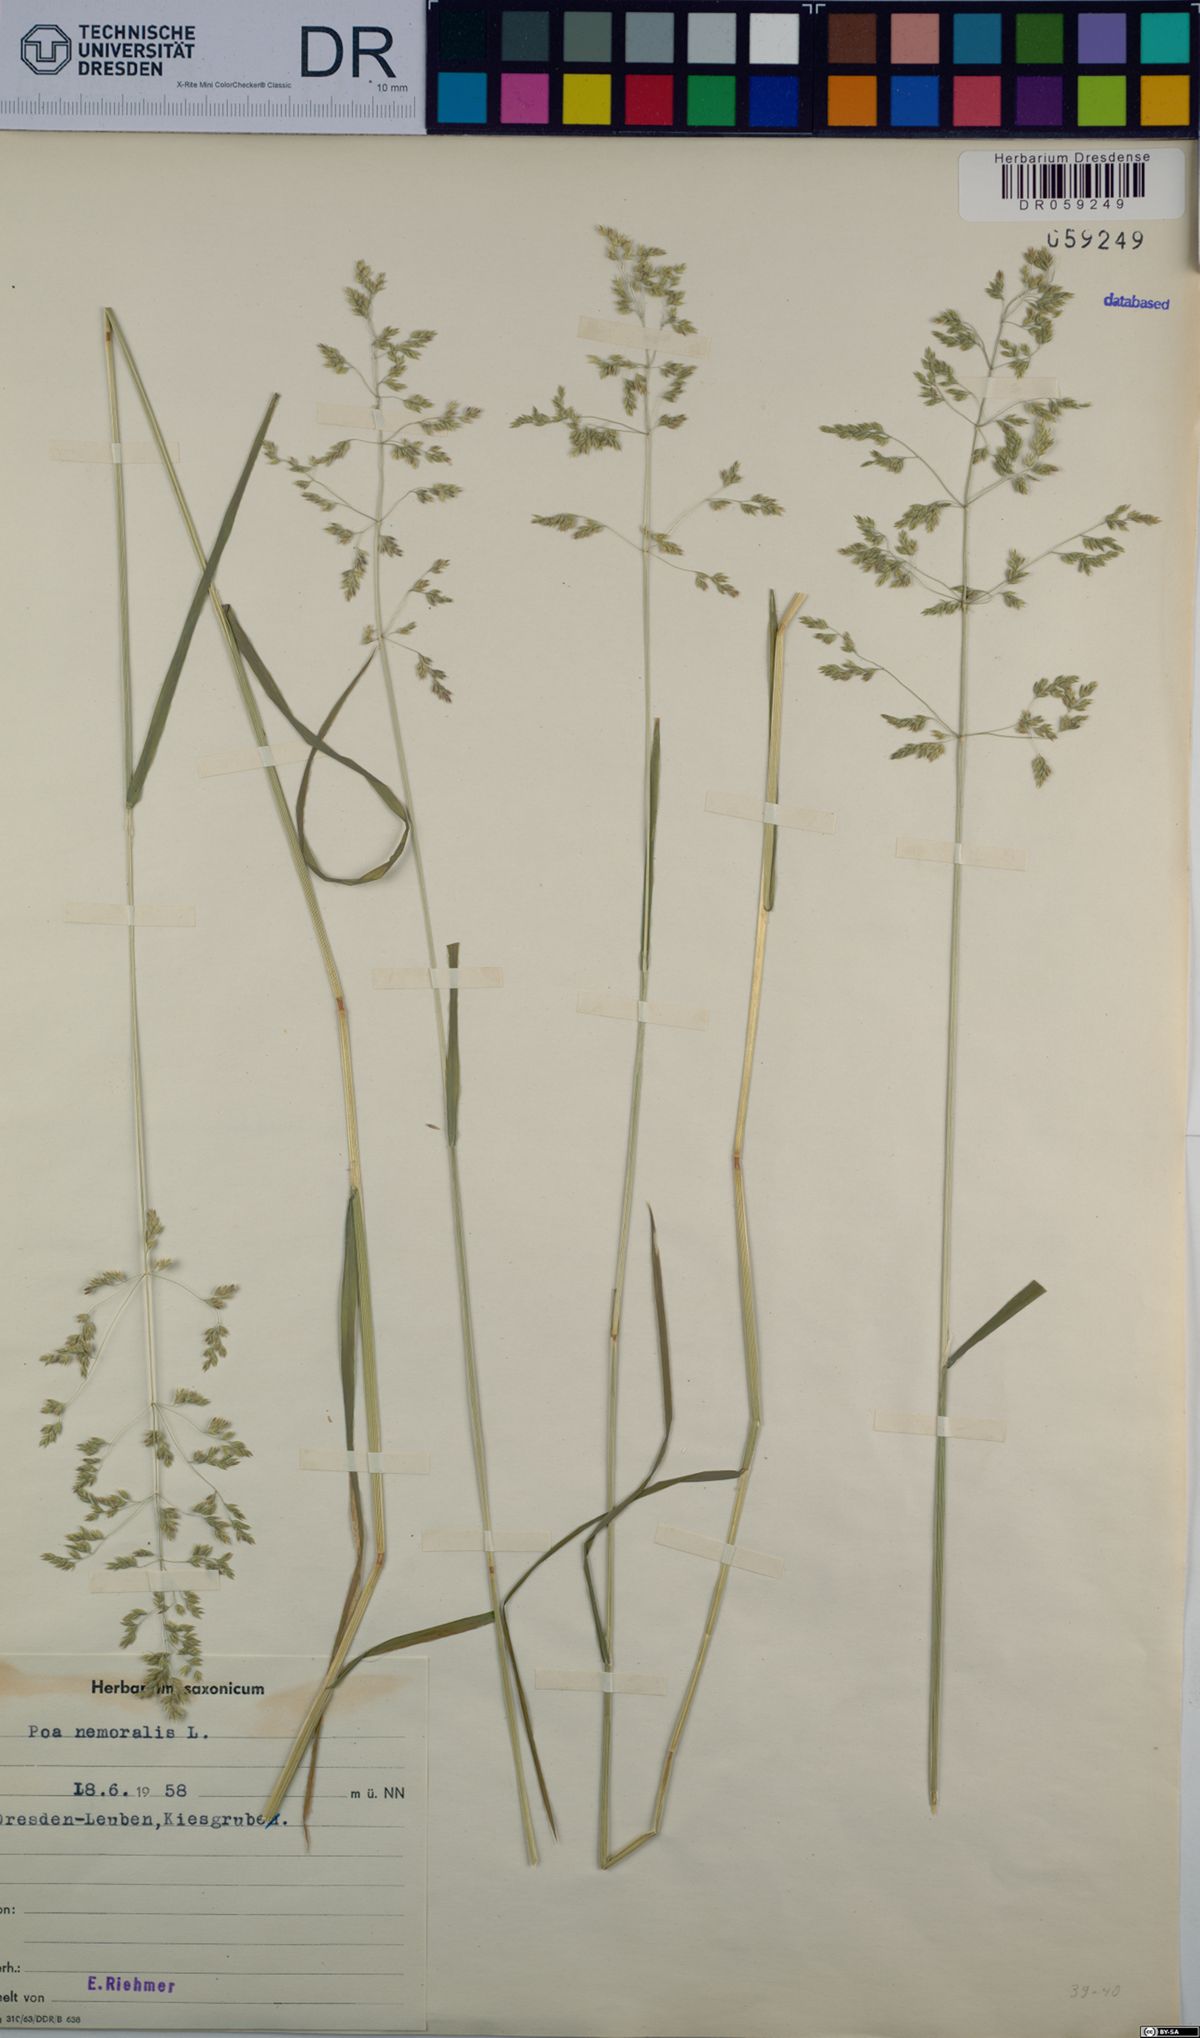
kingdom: Plantae
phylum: Tracheophyta
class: Liliopsida
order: Poales
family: Poaceae
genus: Poa
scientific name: Poa nemoralis
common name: Wood bluegrass
